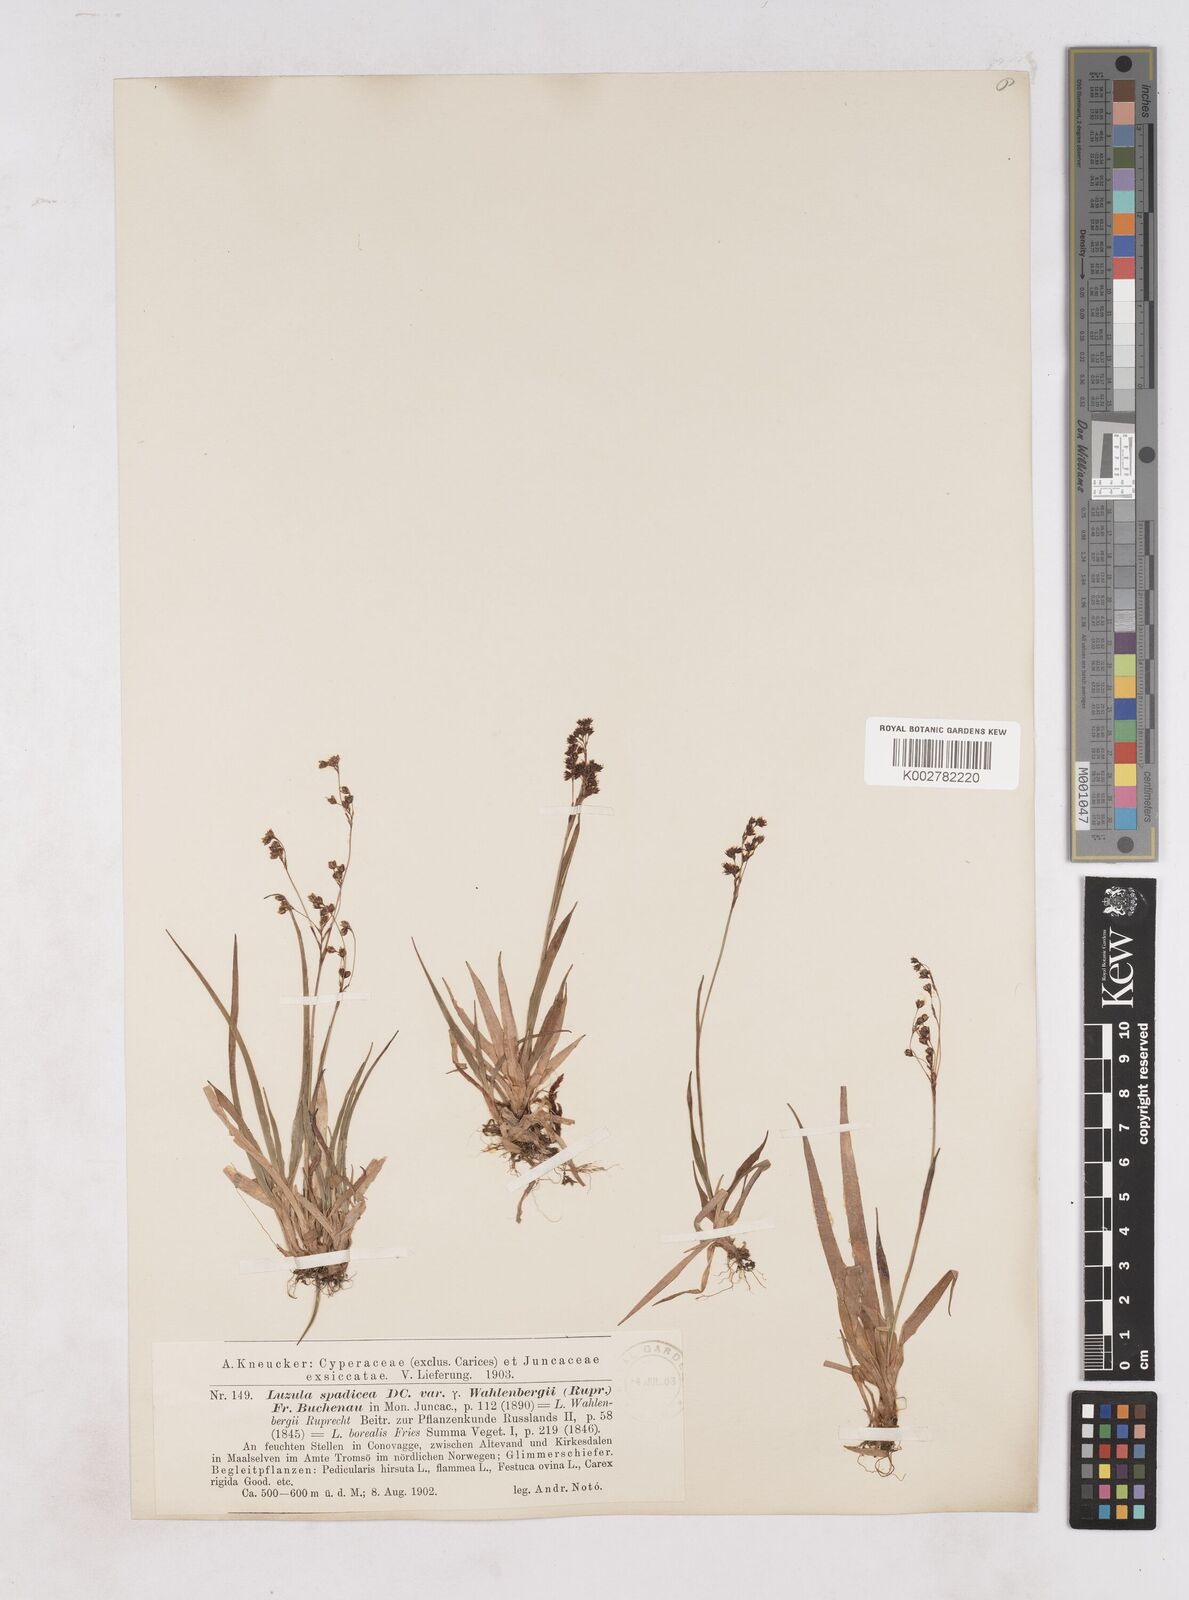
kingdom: Plantae
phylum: Tracheophyta
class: Liliopsida
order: Poales
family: Juncaceae
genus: Luzula
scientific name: Luzula alpinopilosa
